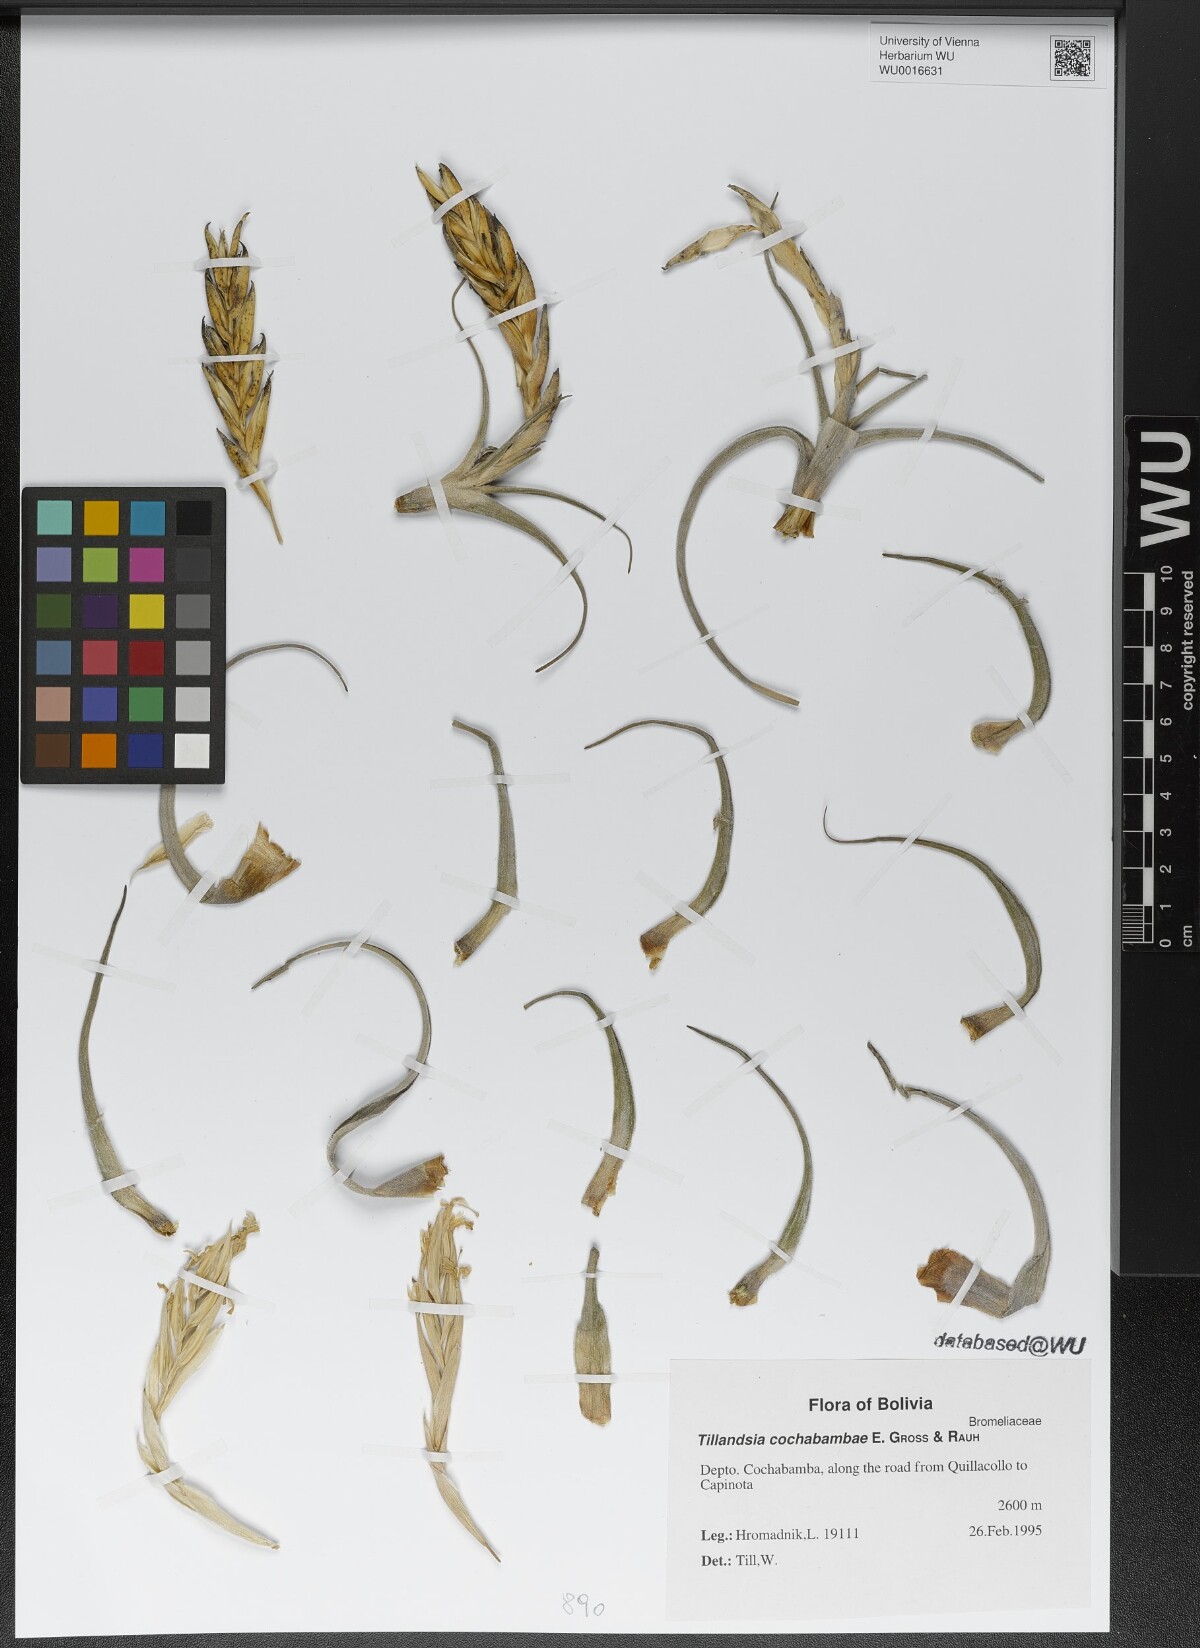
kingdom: Plantae
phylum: Tracheophyta
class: Liliopsida
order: Poales
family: Bromeliaceae
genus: Tillandsia
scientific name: Tillandsia cochabambae
